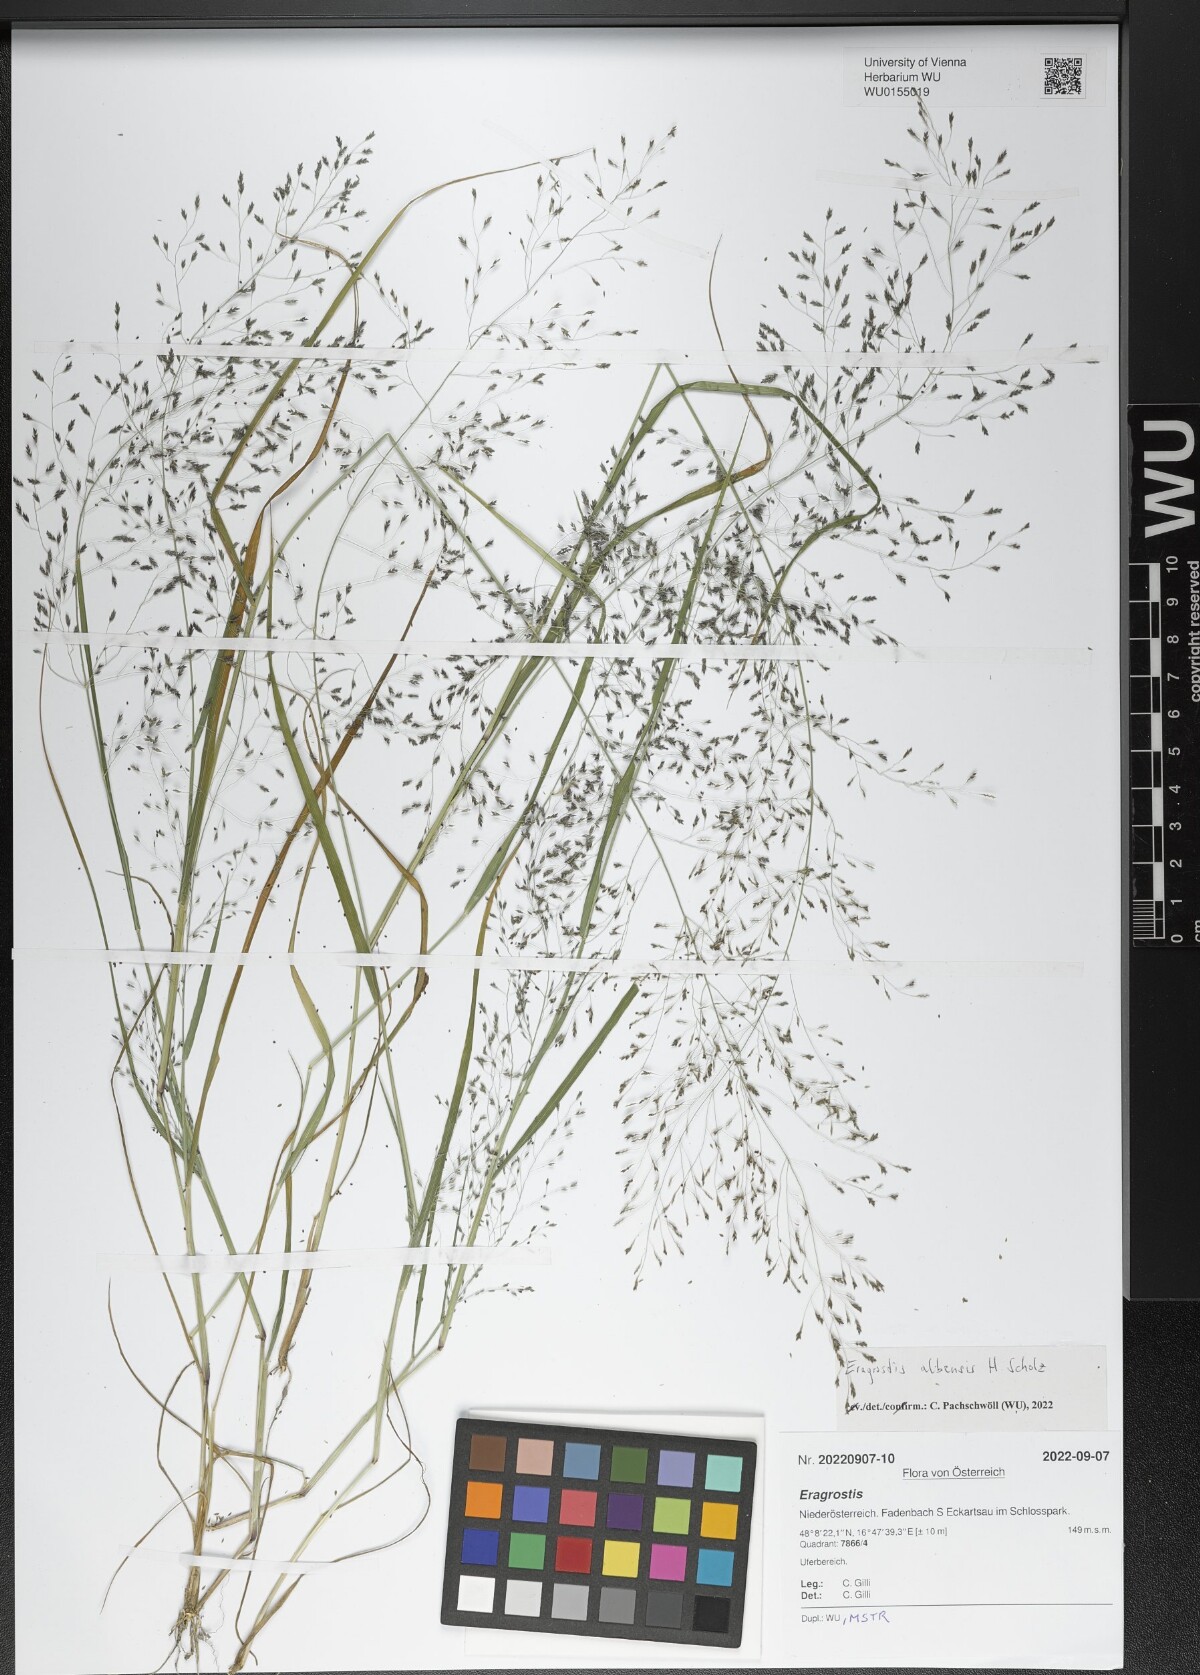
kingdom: Plantae
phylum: Tracheophyta
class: Liliopsida
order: Poales
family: Poaceae
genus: Eragrostis
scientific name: Eragrostis pilosa
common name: Indian lovegrass
